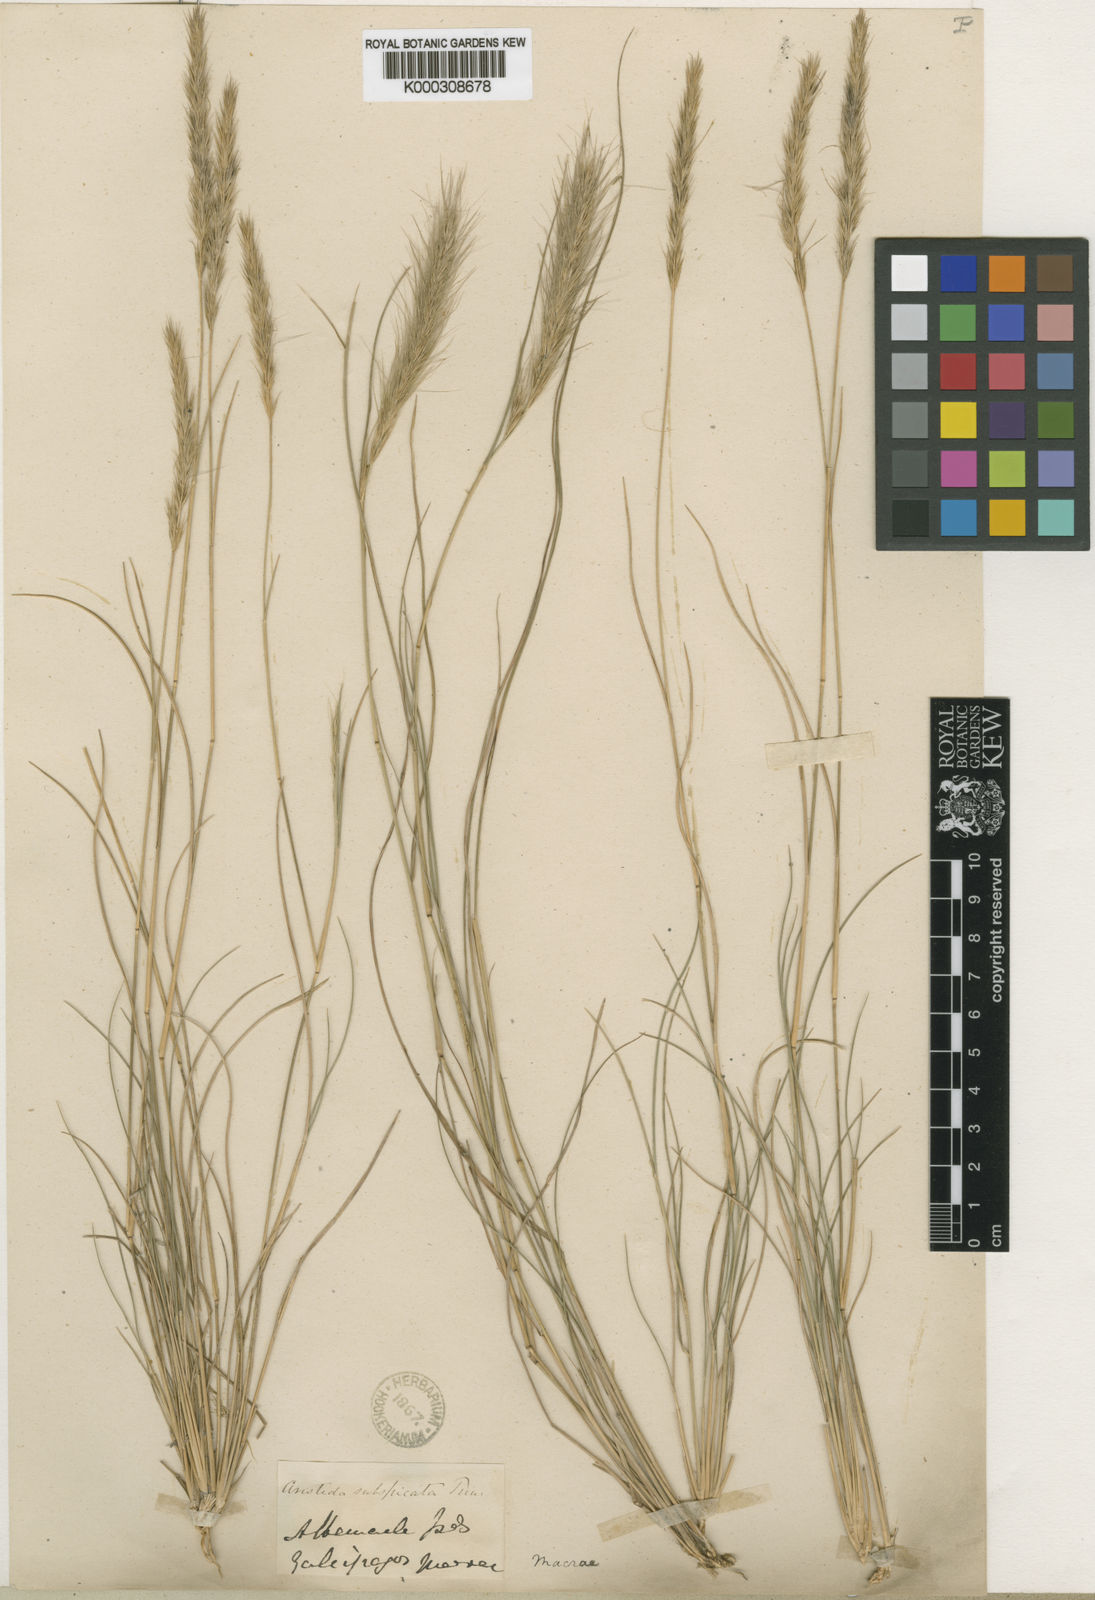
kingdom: Plantae
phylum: Tracheophyta
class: Liliopsida
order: Poales
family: Poaceae
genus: Aristida
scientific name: Aristida subspicata
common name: Galapagos three-awn grass
